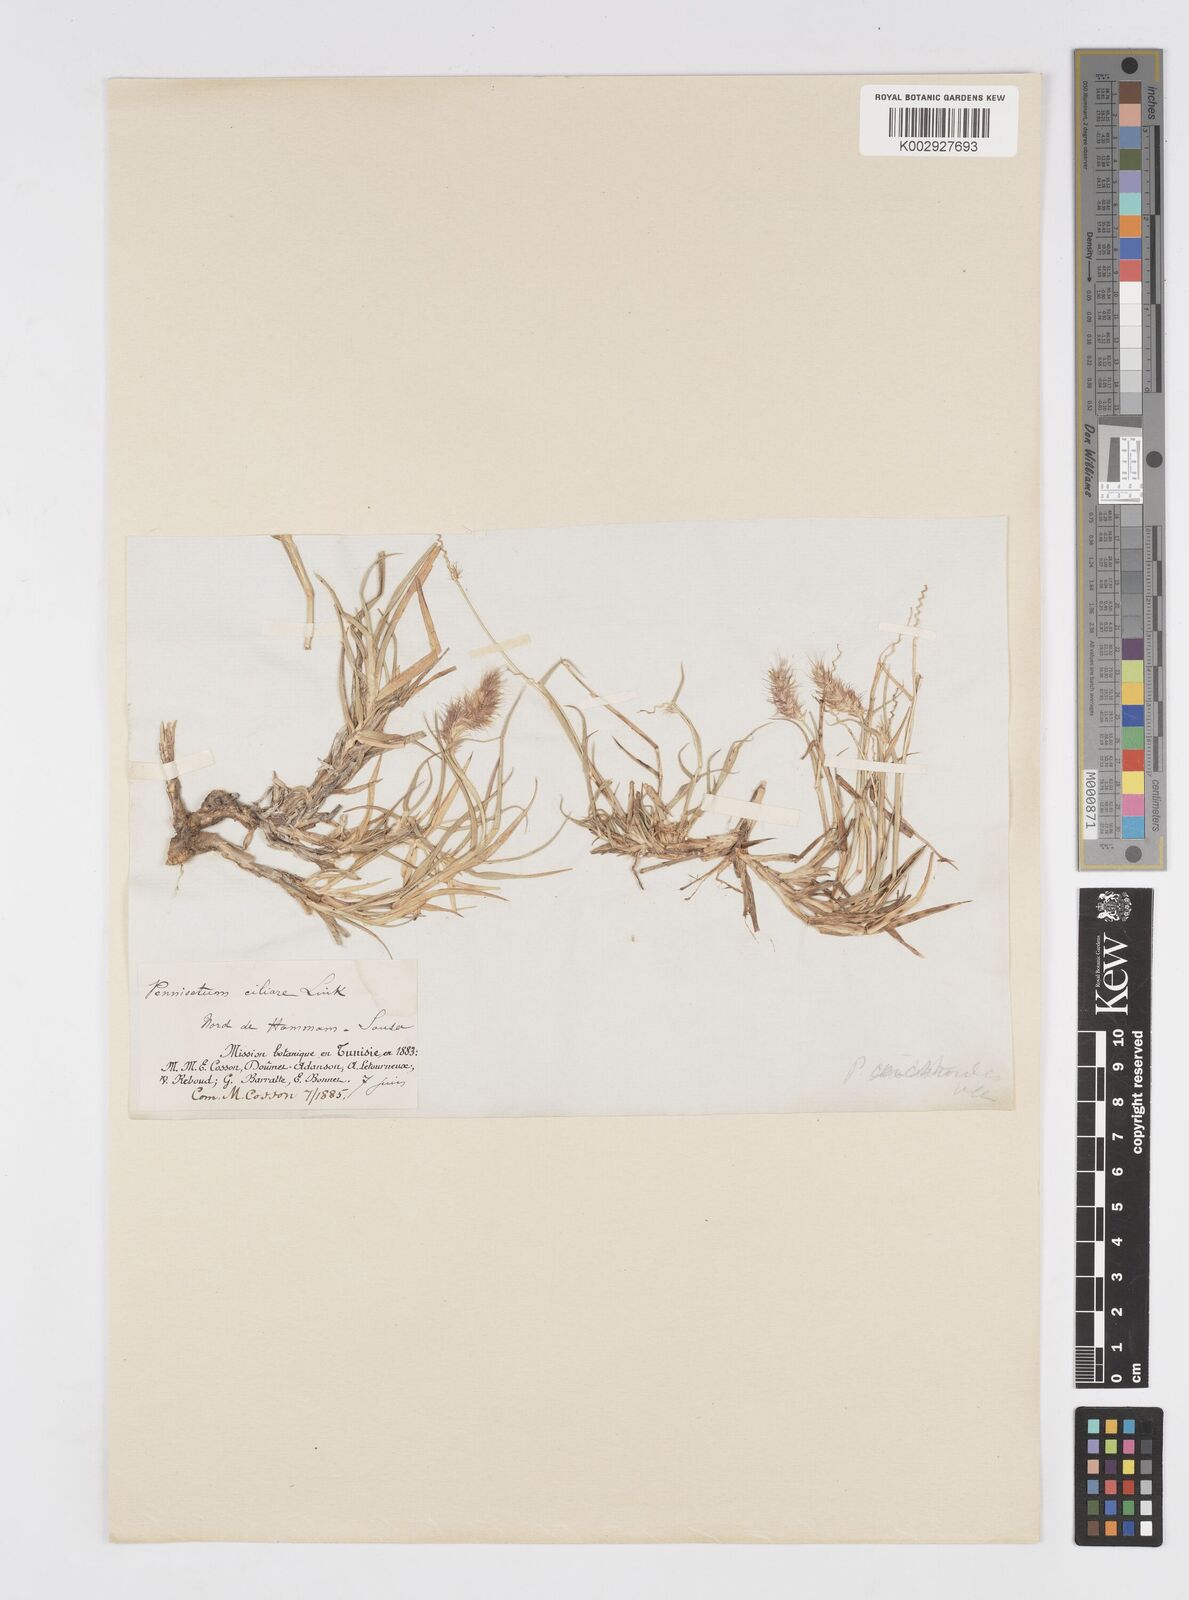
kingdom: Plantae
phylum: Tracheophyta
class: Liliopsida
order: Poales
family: Poaceae
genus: Cenchrus
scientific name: Cenchrus ciliaris
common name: Buffelgrass
